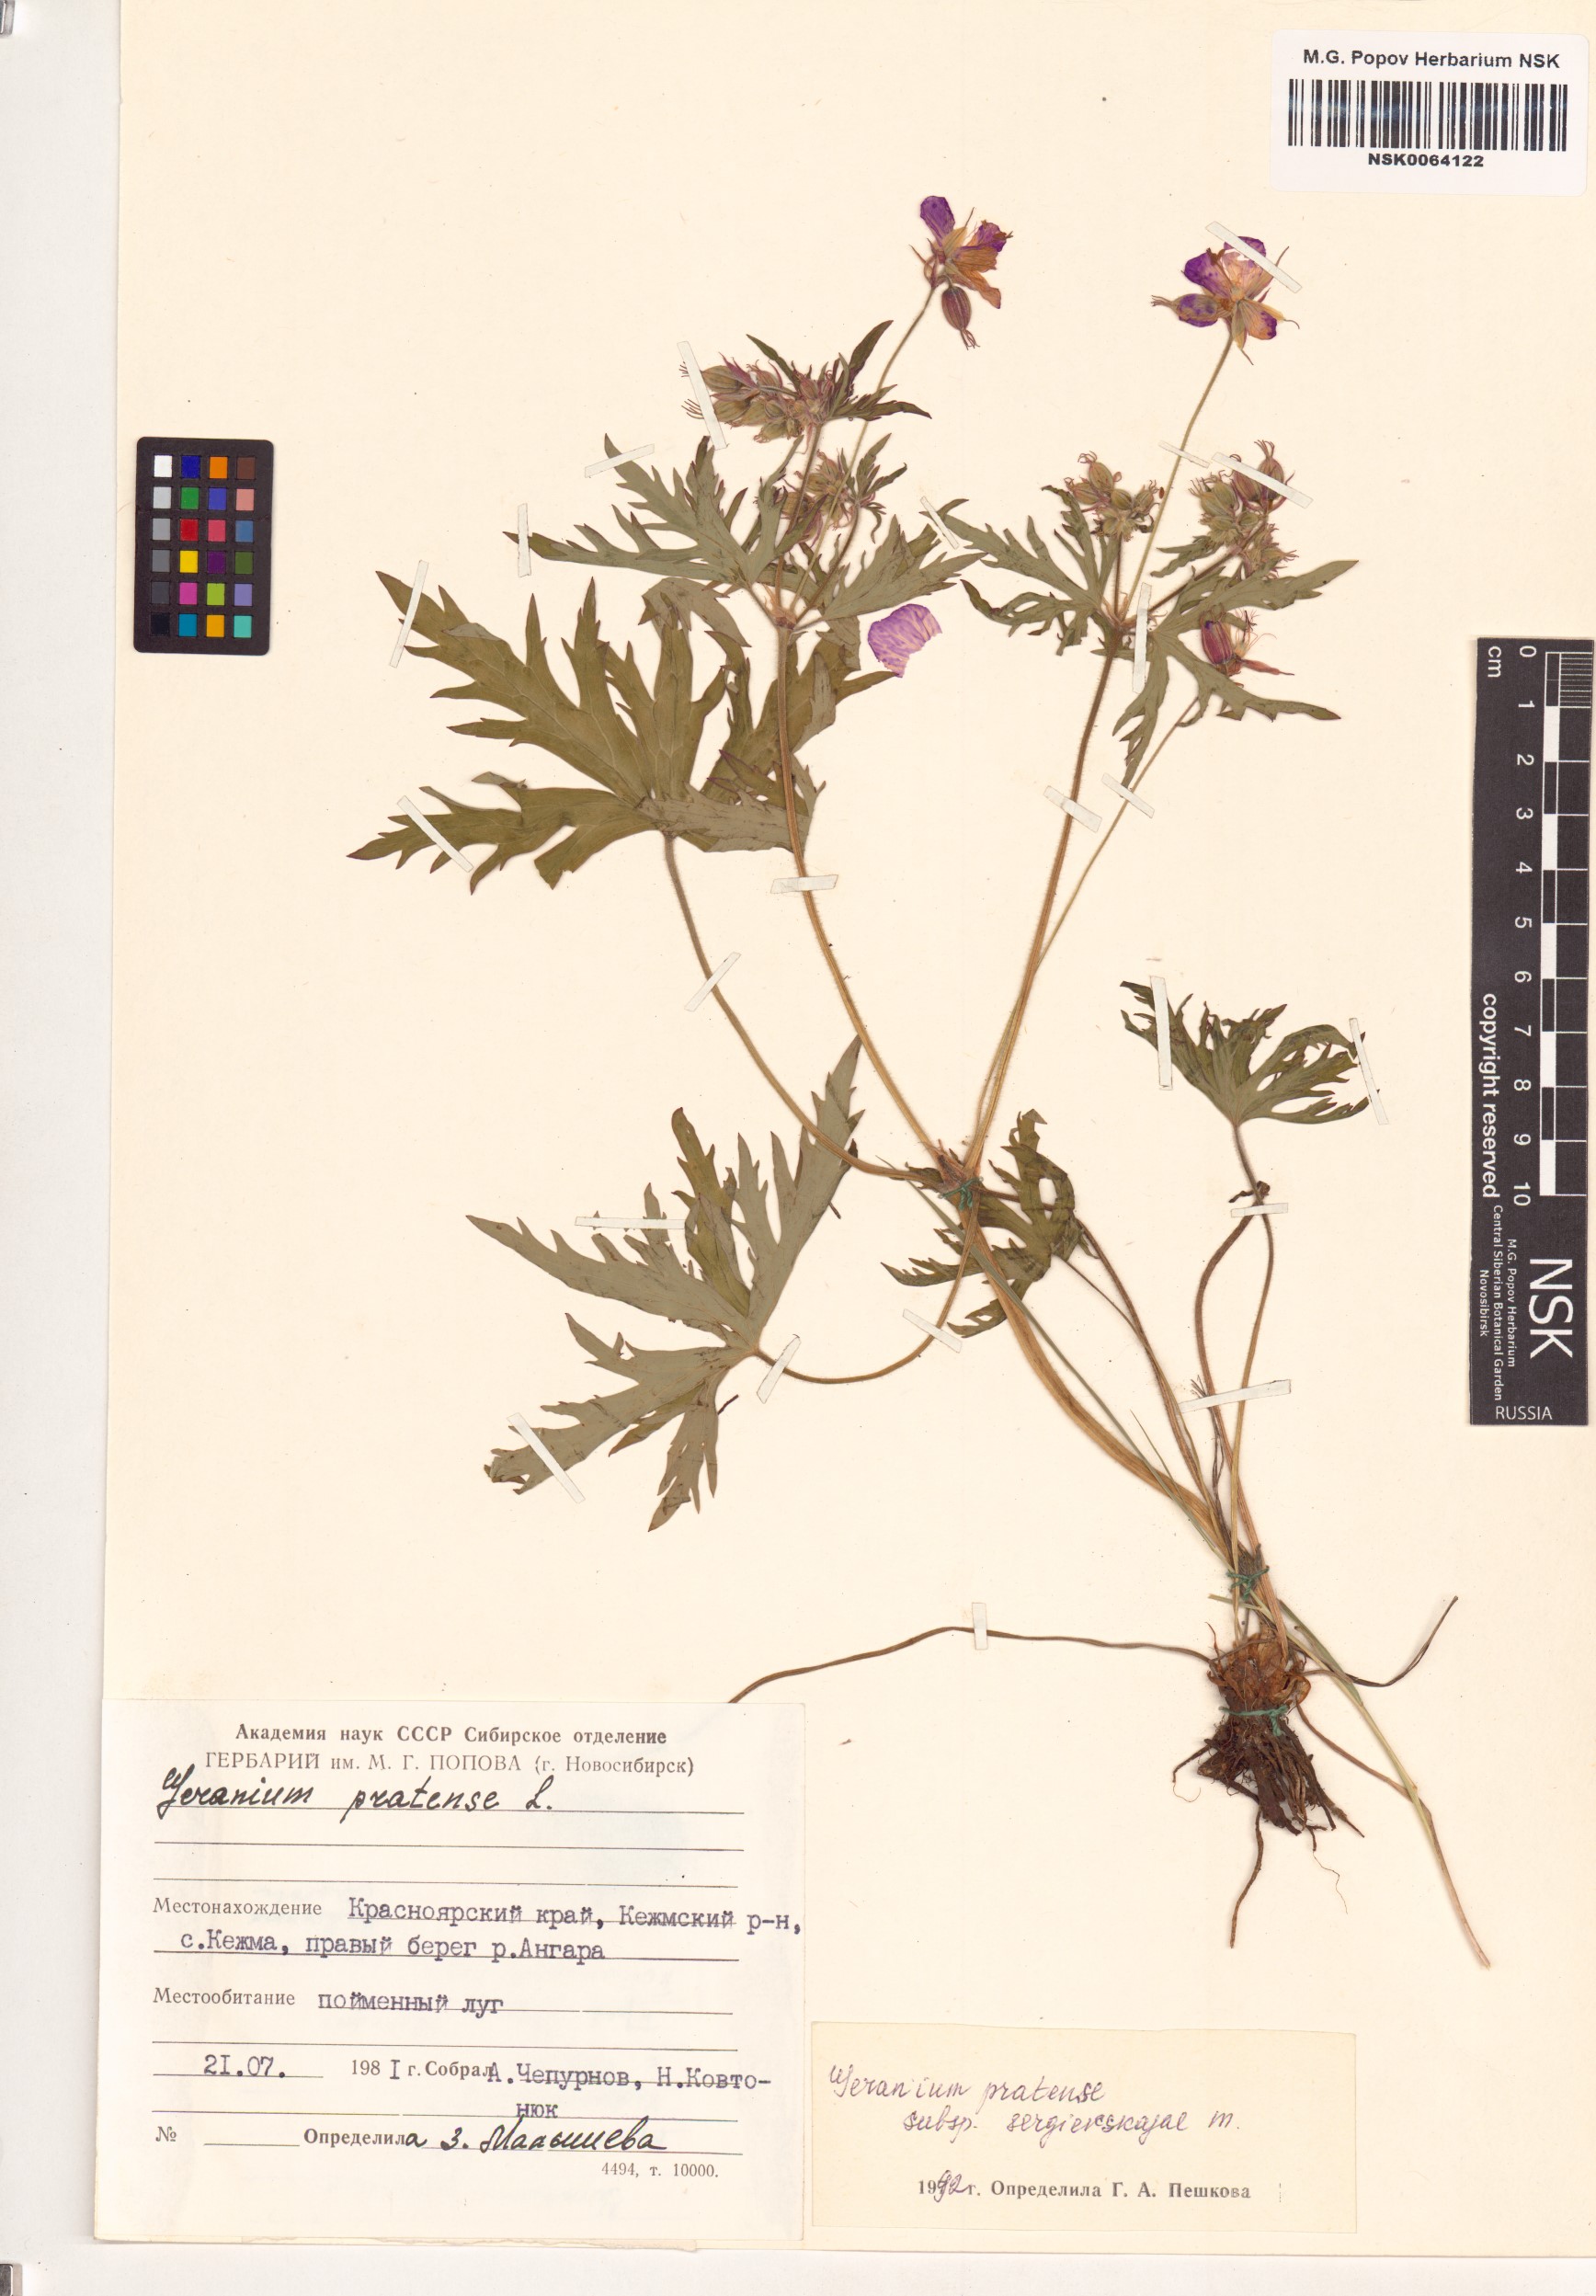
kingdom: Plantae
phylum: Tracheophyta
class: Magnoliopsida
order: Geraniales
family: Geraniaceae
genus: Geranium
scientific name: Geranium pratense
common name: Meadow crane's-bill
